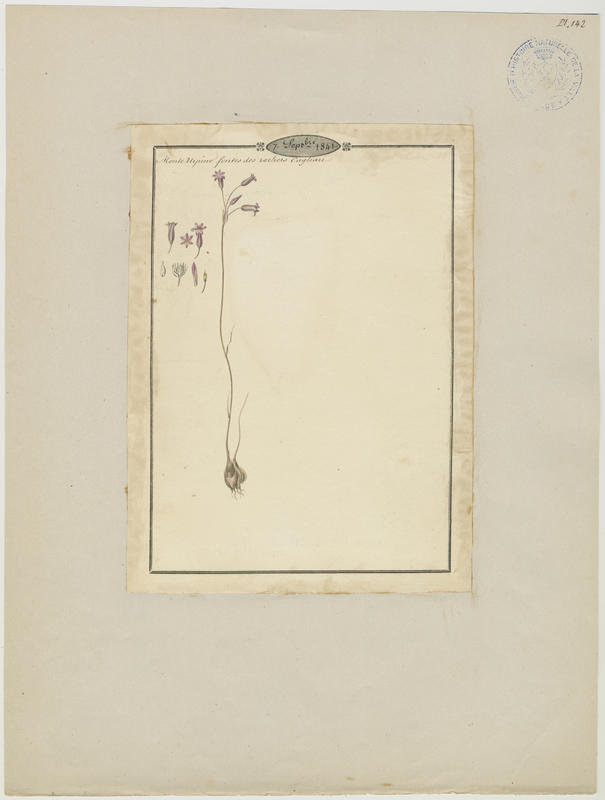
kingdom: Plantae
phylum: Tracheophyta
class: Liliopsida
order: Asparagales
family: Amaryllidaceae
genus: Allium
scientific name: Allium
